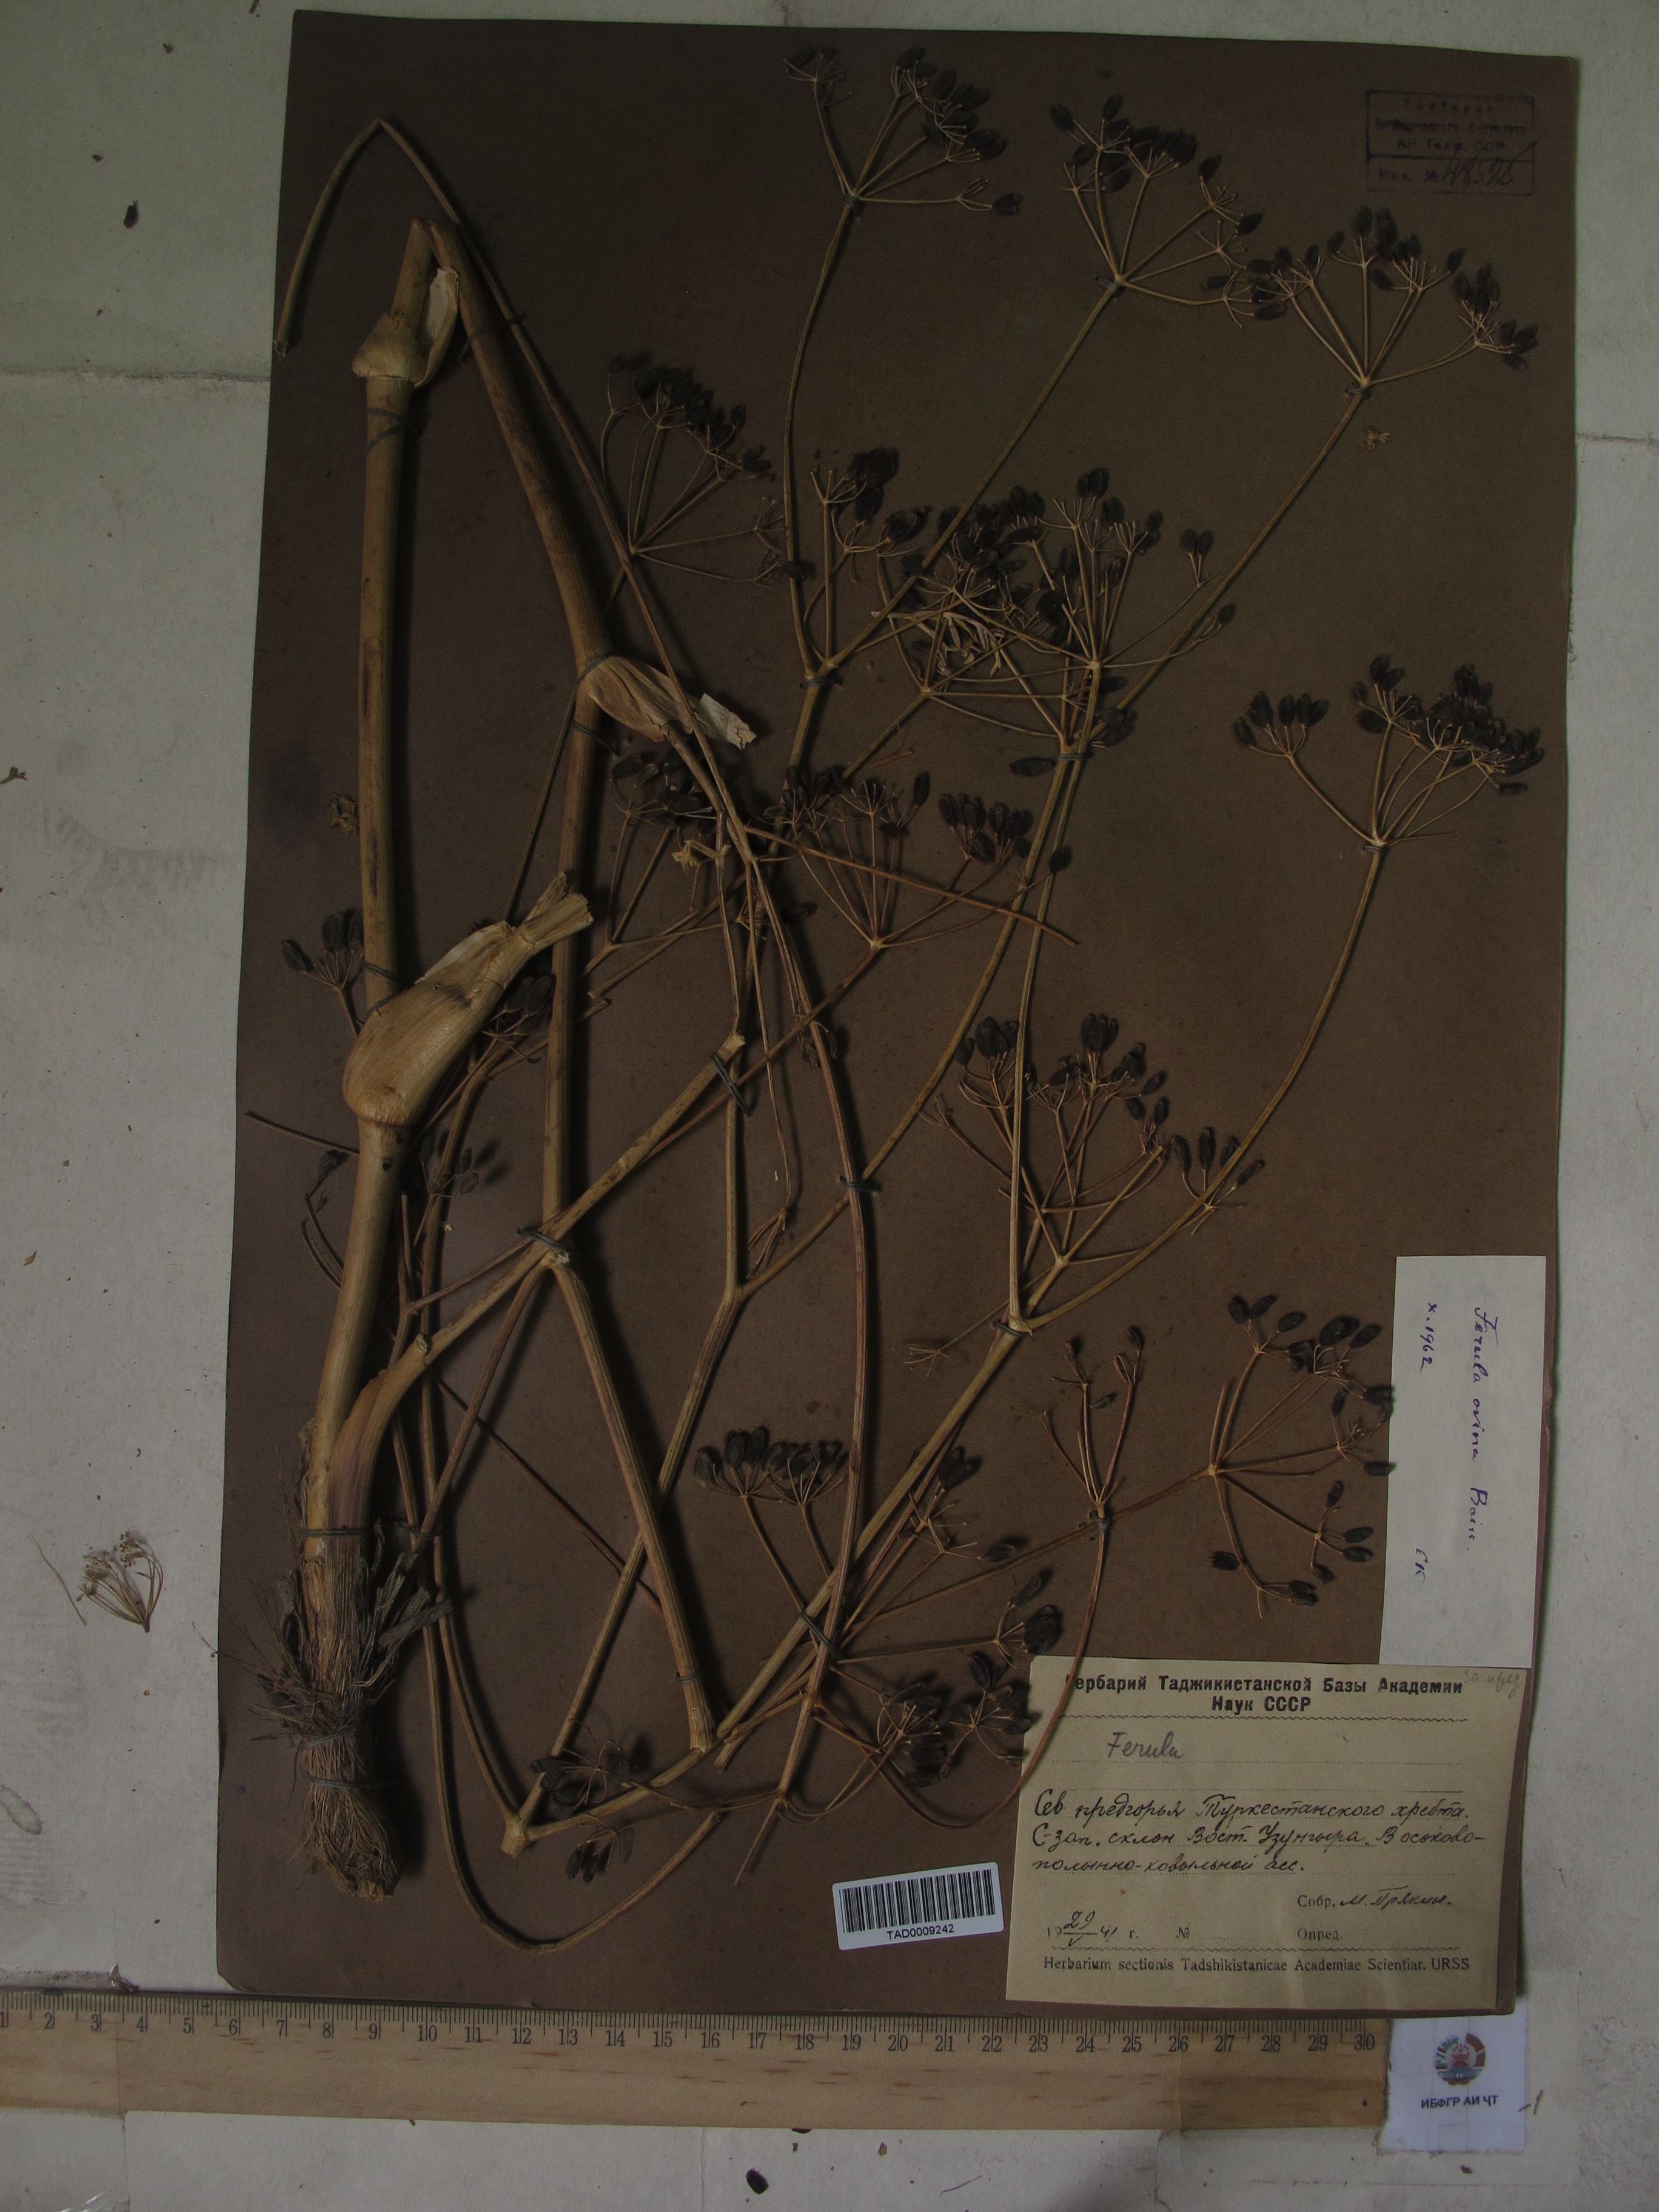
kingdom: Plantae
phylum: Tracheophyta
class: Magnoliopsida
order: Apiales
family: Apiaceae
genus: Ferula
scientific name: Ferula ovina
